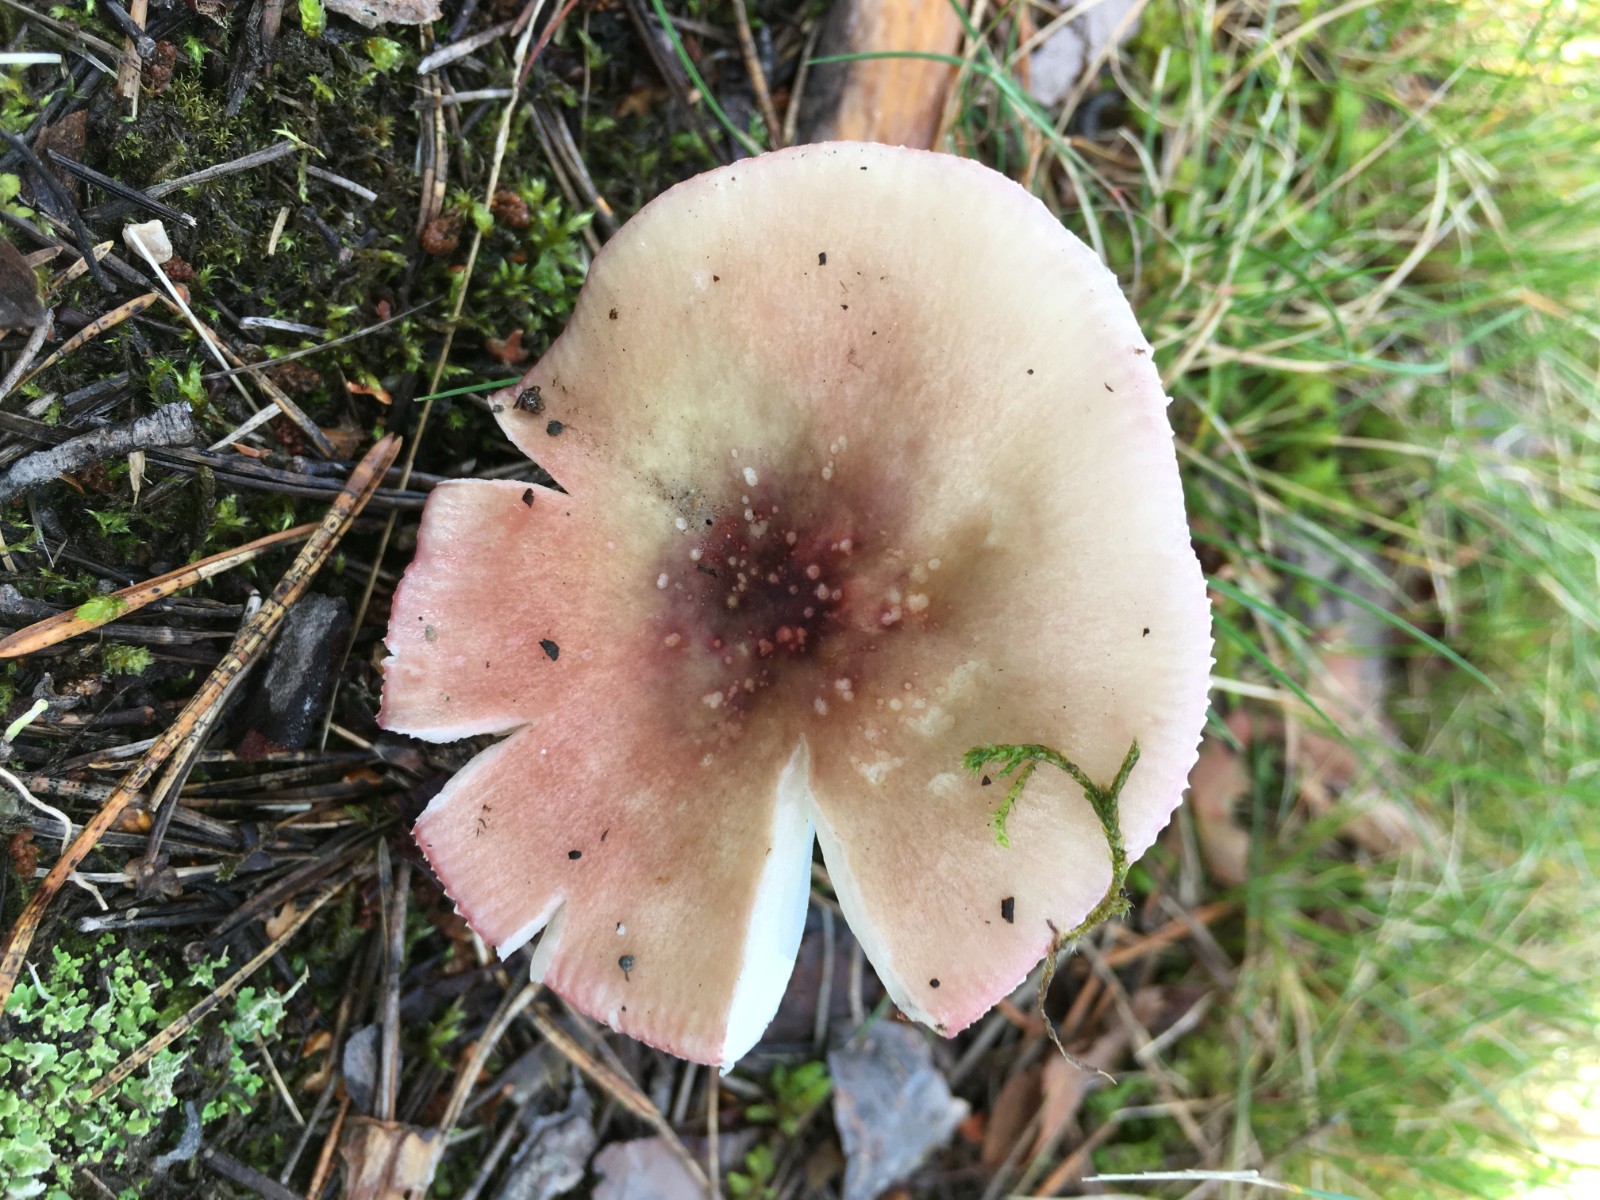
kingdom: Fungi
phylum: Basidiomycota
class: Agaricomycetes
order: Russulales
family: Russulaceae
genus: Russula
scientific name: Russula gracillima
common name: slank skørhat
